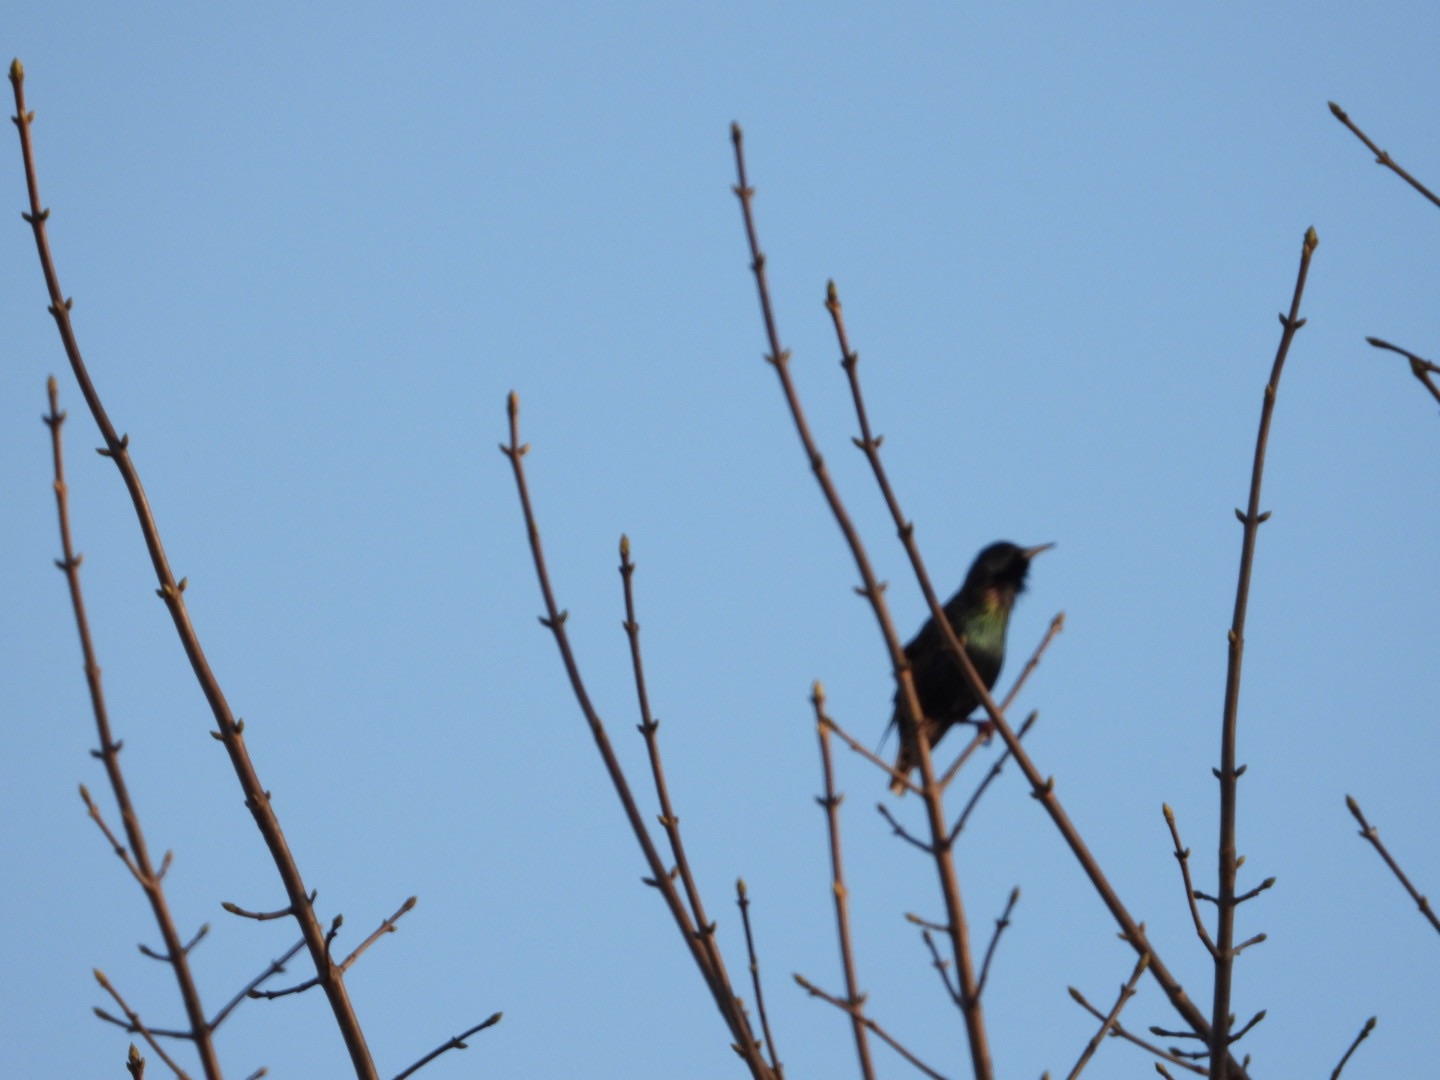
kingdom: Animalia
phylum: Chordata
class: Aves
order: Passeriformes
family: Sturnidae
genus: Sturnus
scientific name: Sturnus vulgaris
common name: Stær
